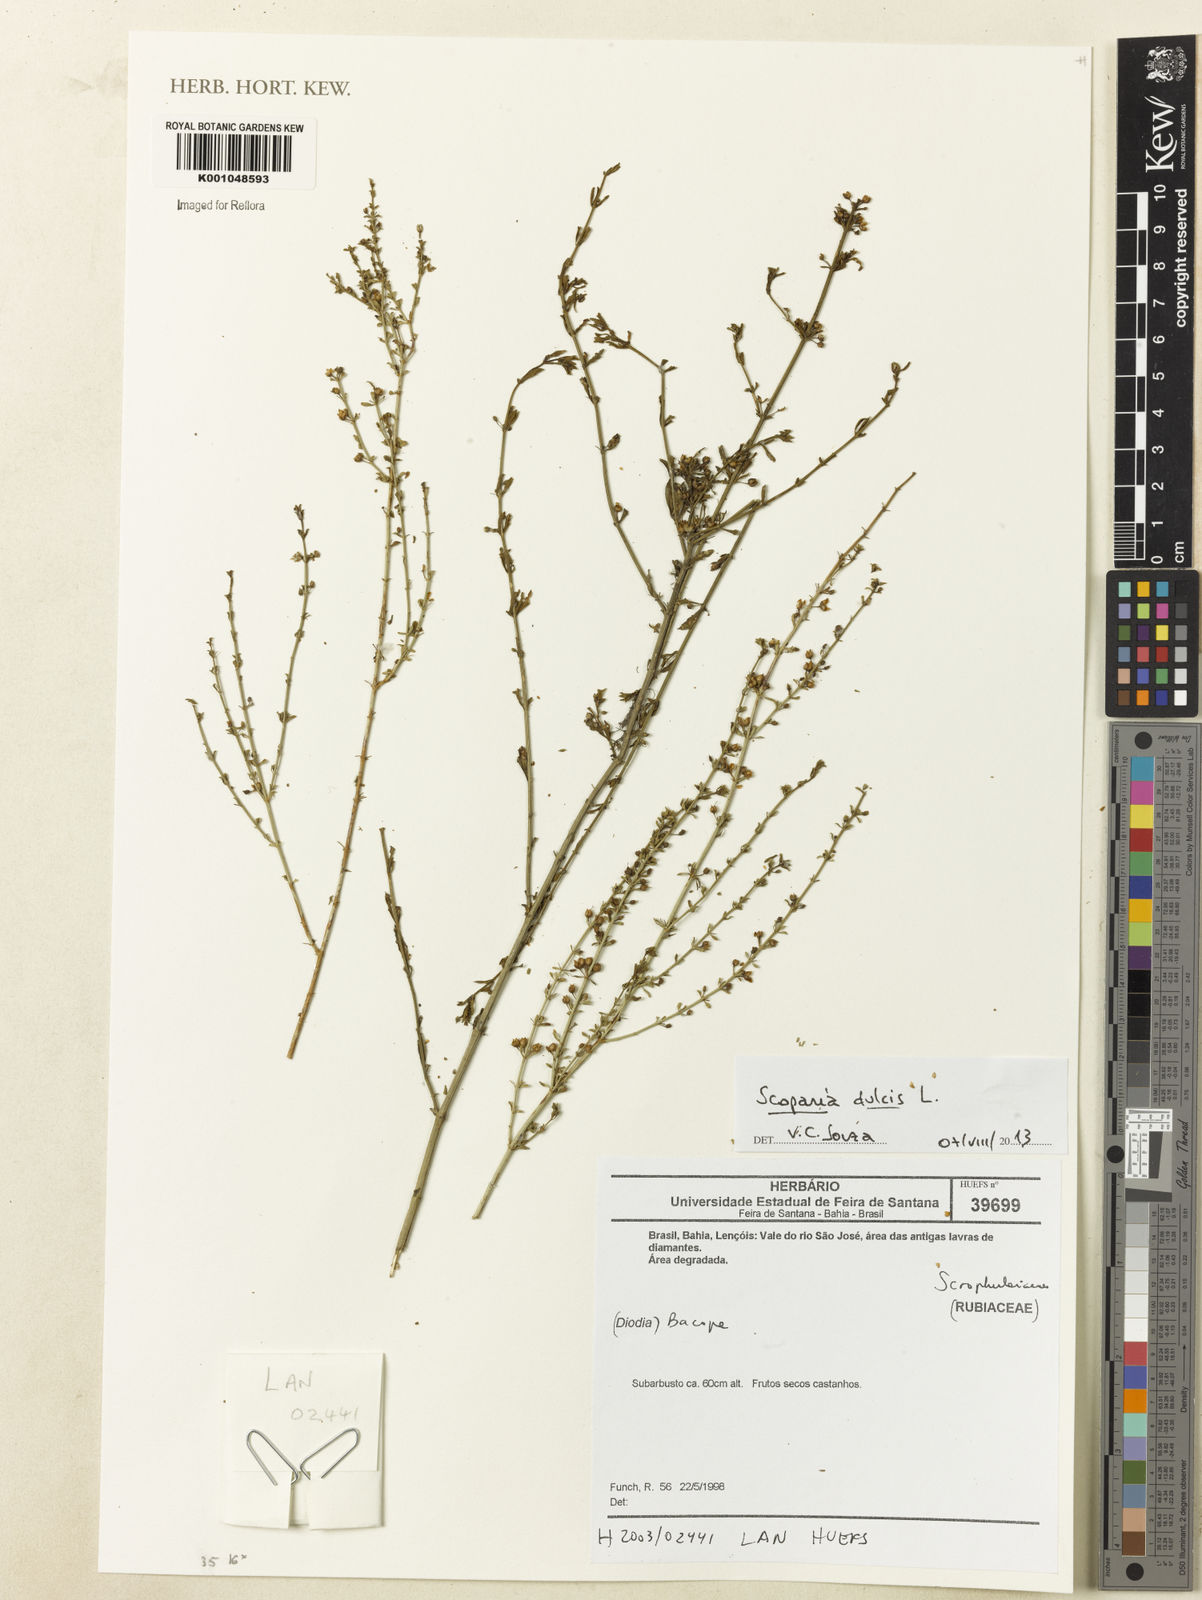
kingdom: Plantae
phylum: Tracheophyta
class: Magnoliopsida
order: Lamiales
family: Plantaginaceae
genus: Scoparia
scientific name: Scoparia dulcis
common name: Scoparia-weed
